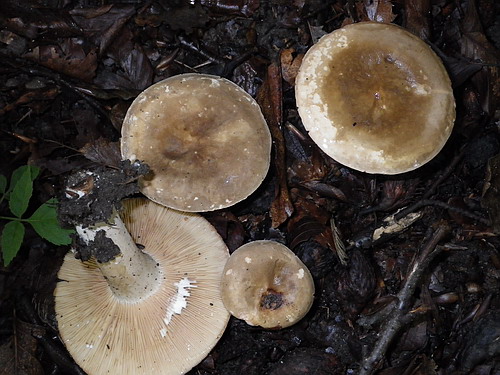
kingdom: Fungi
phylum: Basidiomycota
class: Agaricomycetes
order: Russulales
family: Russulaceae
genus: Lactarius
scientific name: Lactarius pterosporus
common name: vingesporet mælkehat
